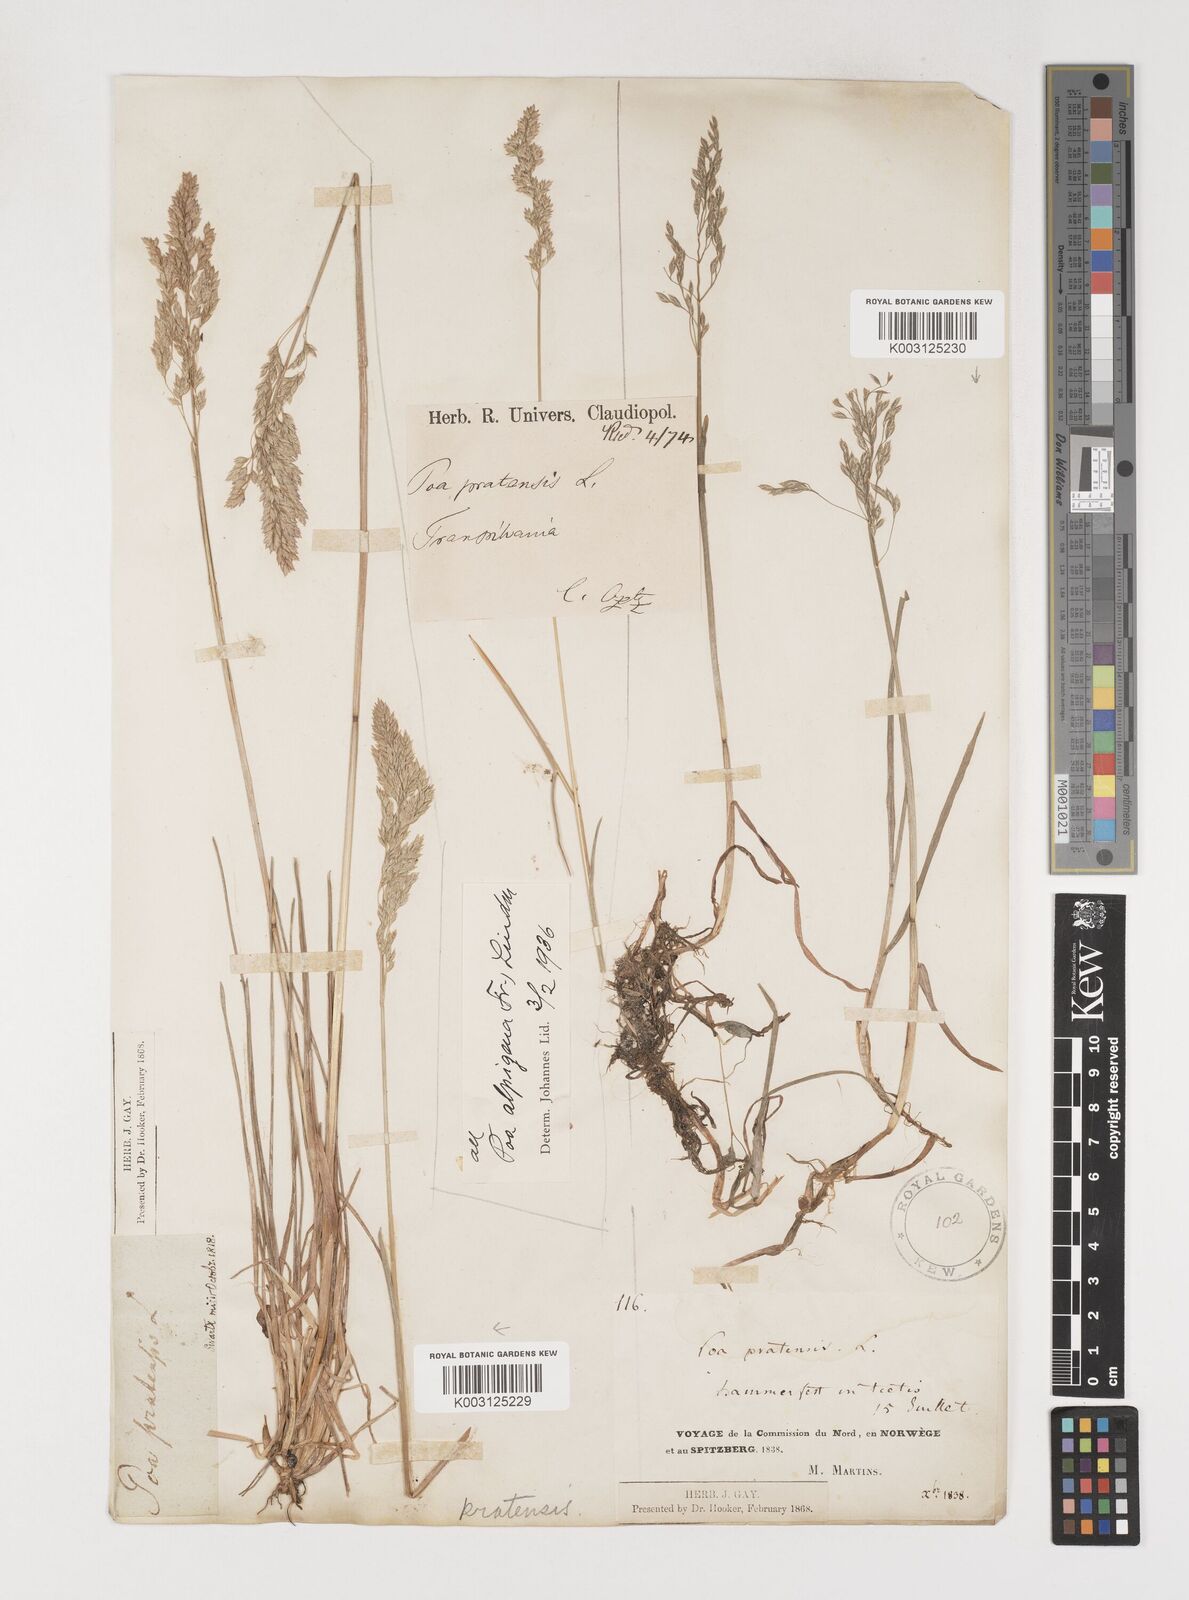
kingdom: Plantae
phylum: Tracheophyta
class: Liliopsida
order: Poales
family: Poaceae
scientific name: Poaceae
